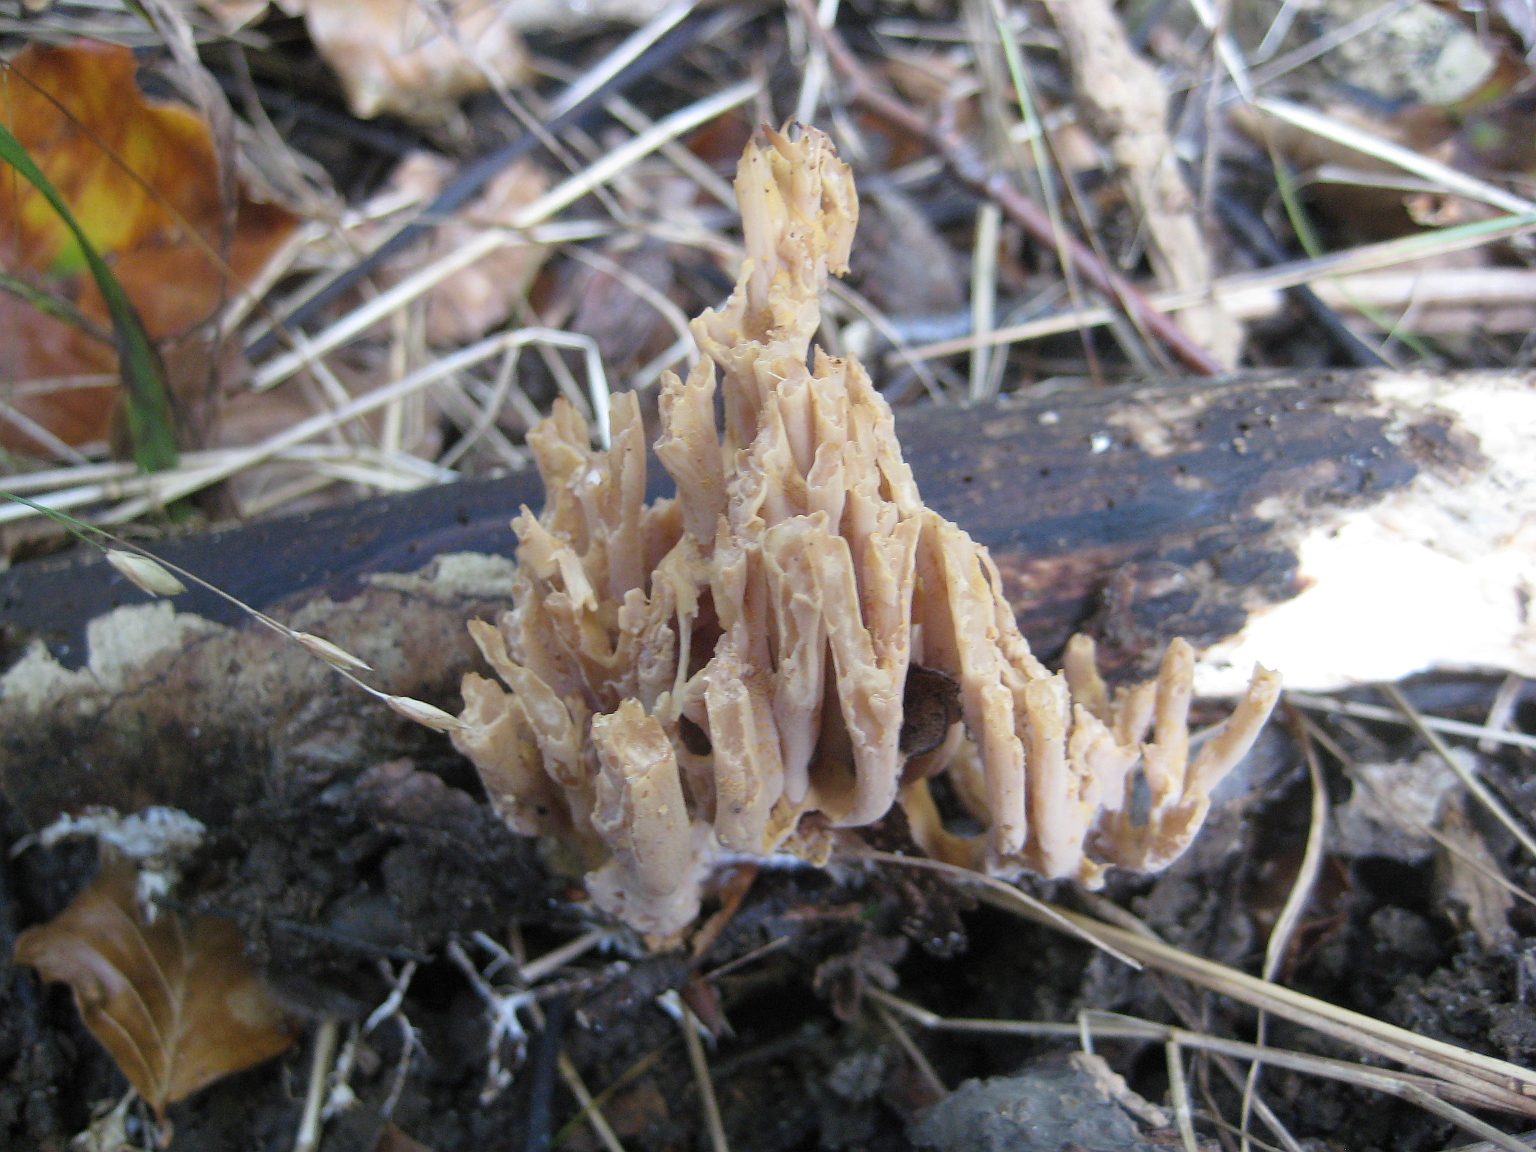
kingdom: Fungi
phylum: Basidiomycota
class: Agaricomycetes
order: Gomphales
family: Gomphaceae
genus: Ramaria
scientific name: Ramaria stricta
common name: rank koralsvamp
